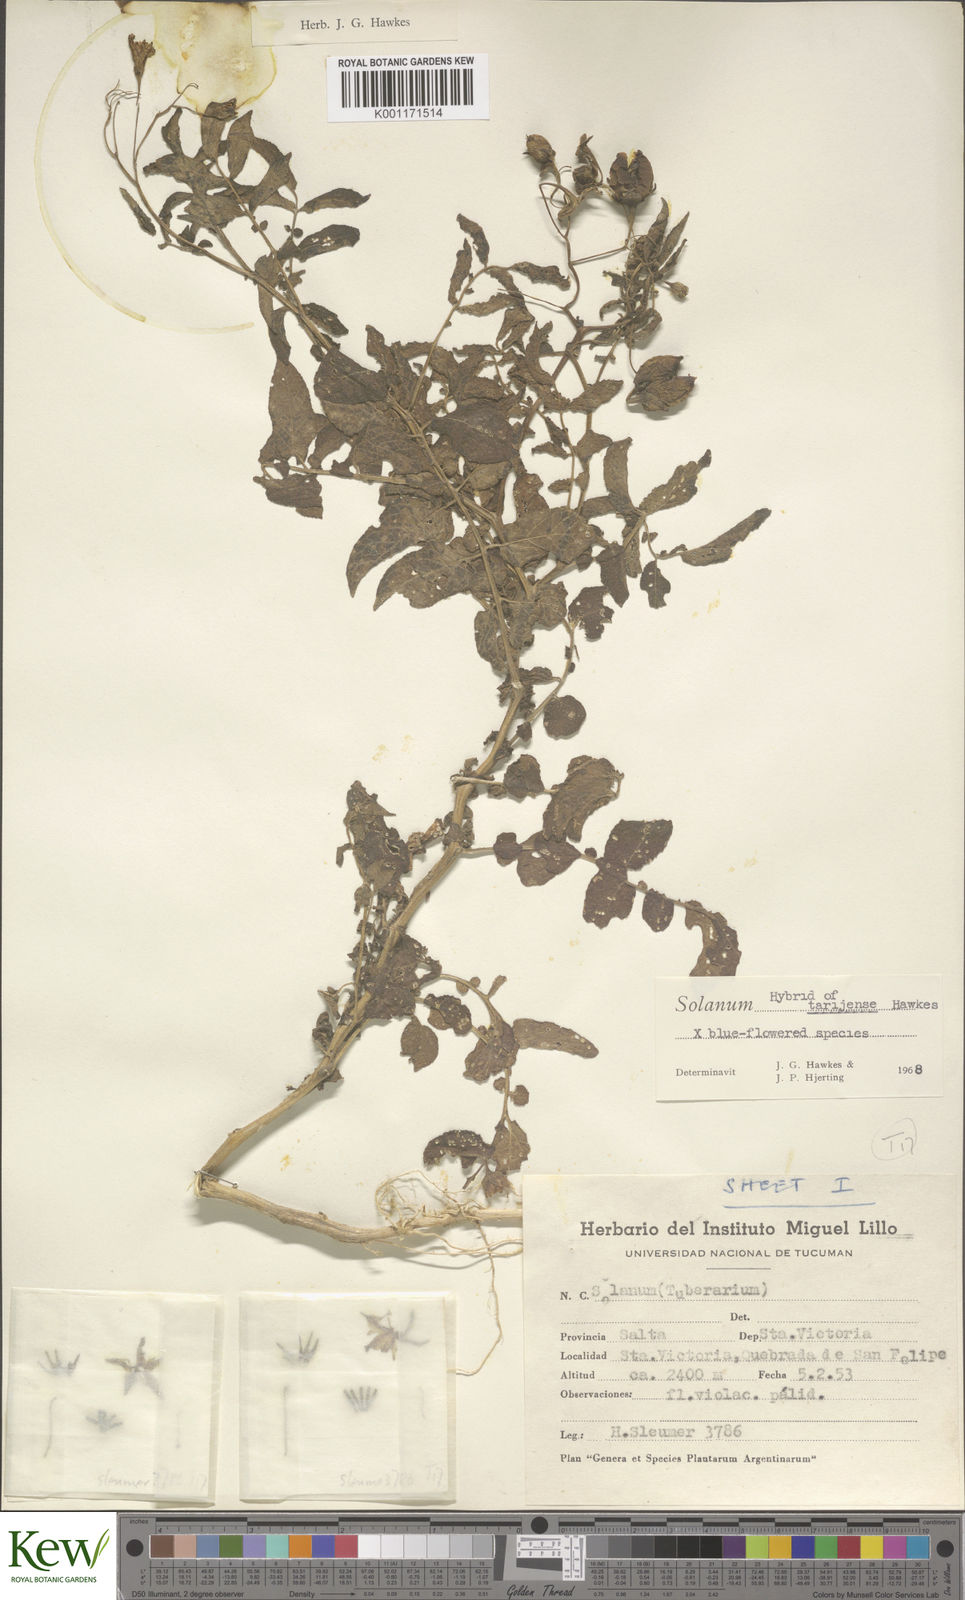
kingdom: Plantae
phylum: Tracheophyta
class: Magnoliopsida
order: Solanales
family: Solanaceae
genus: Solanum
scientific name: Solanum tarijense
